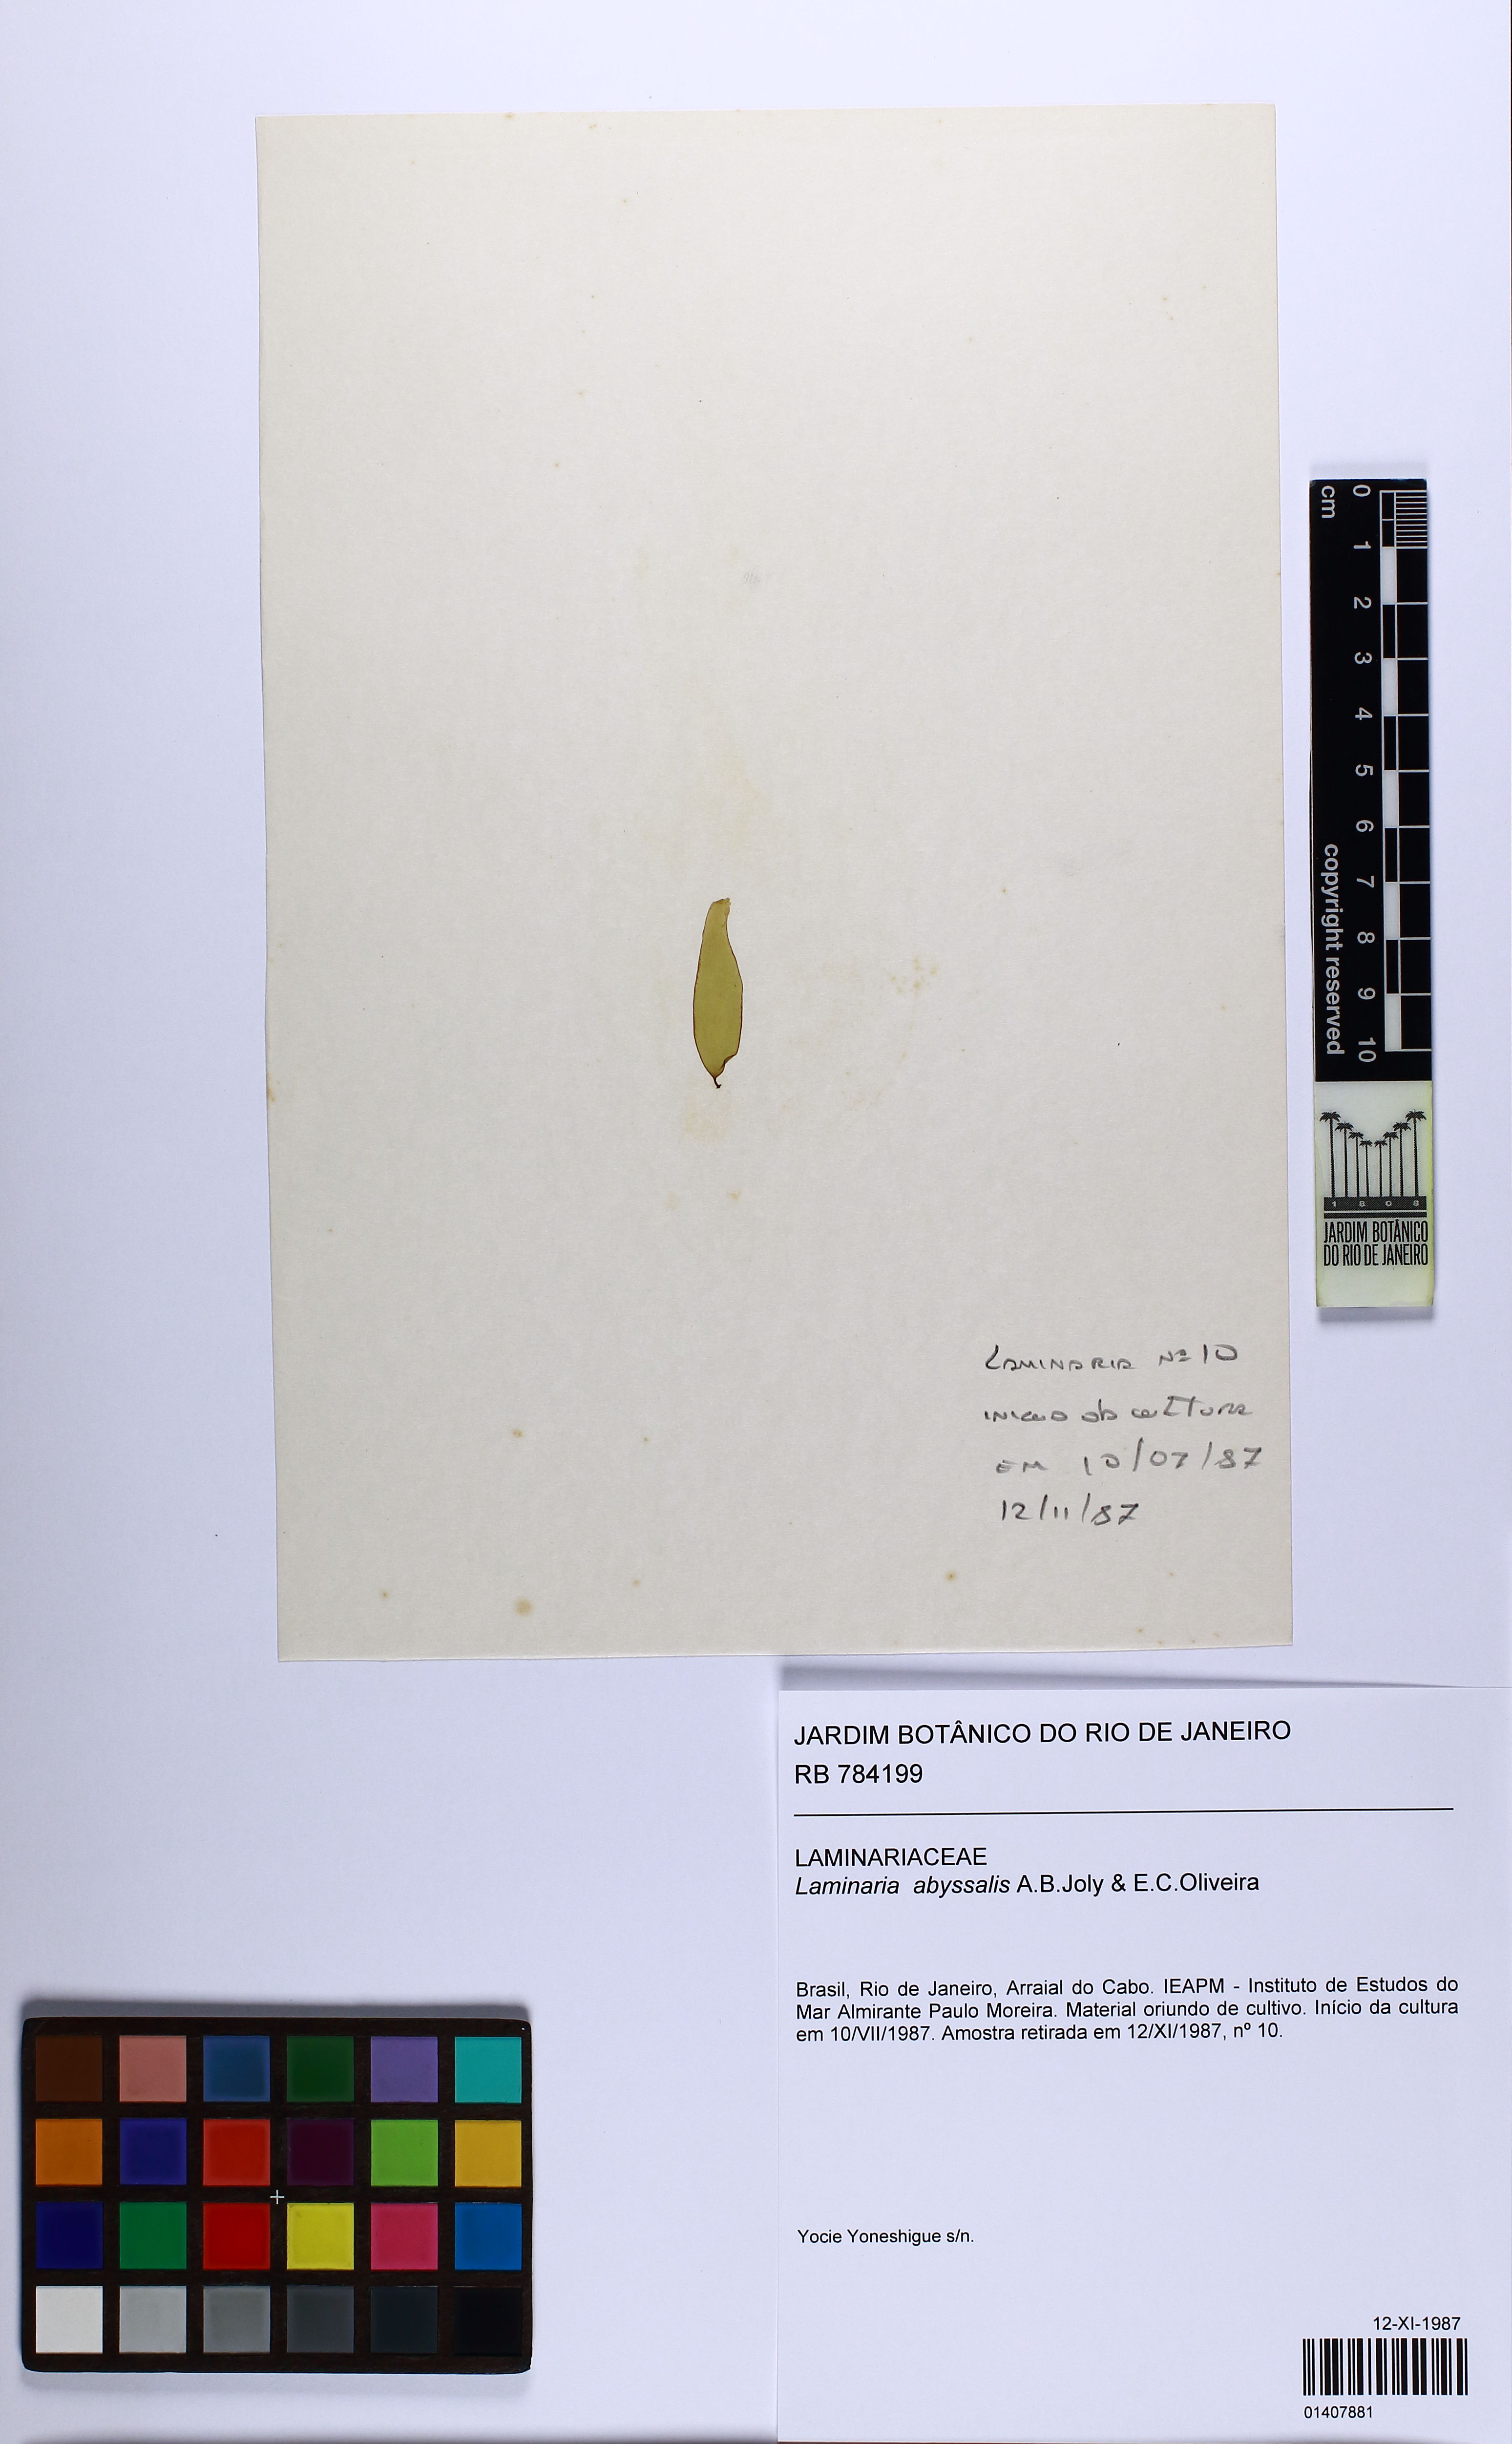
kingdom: Chromista
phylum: Ochrophyta
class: Phaeophyceae
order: Laminariales
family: Laminariaceae
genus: Laminaria
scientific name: Laminaria abyssalis
